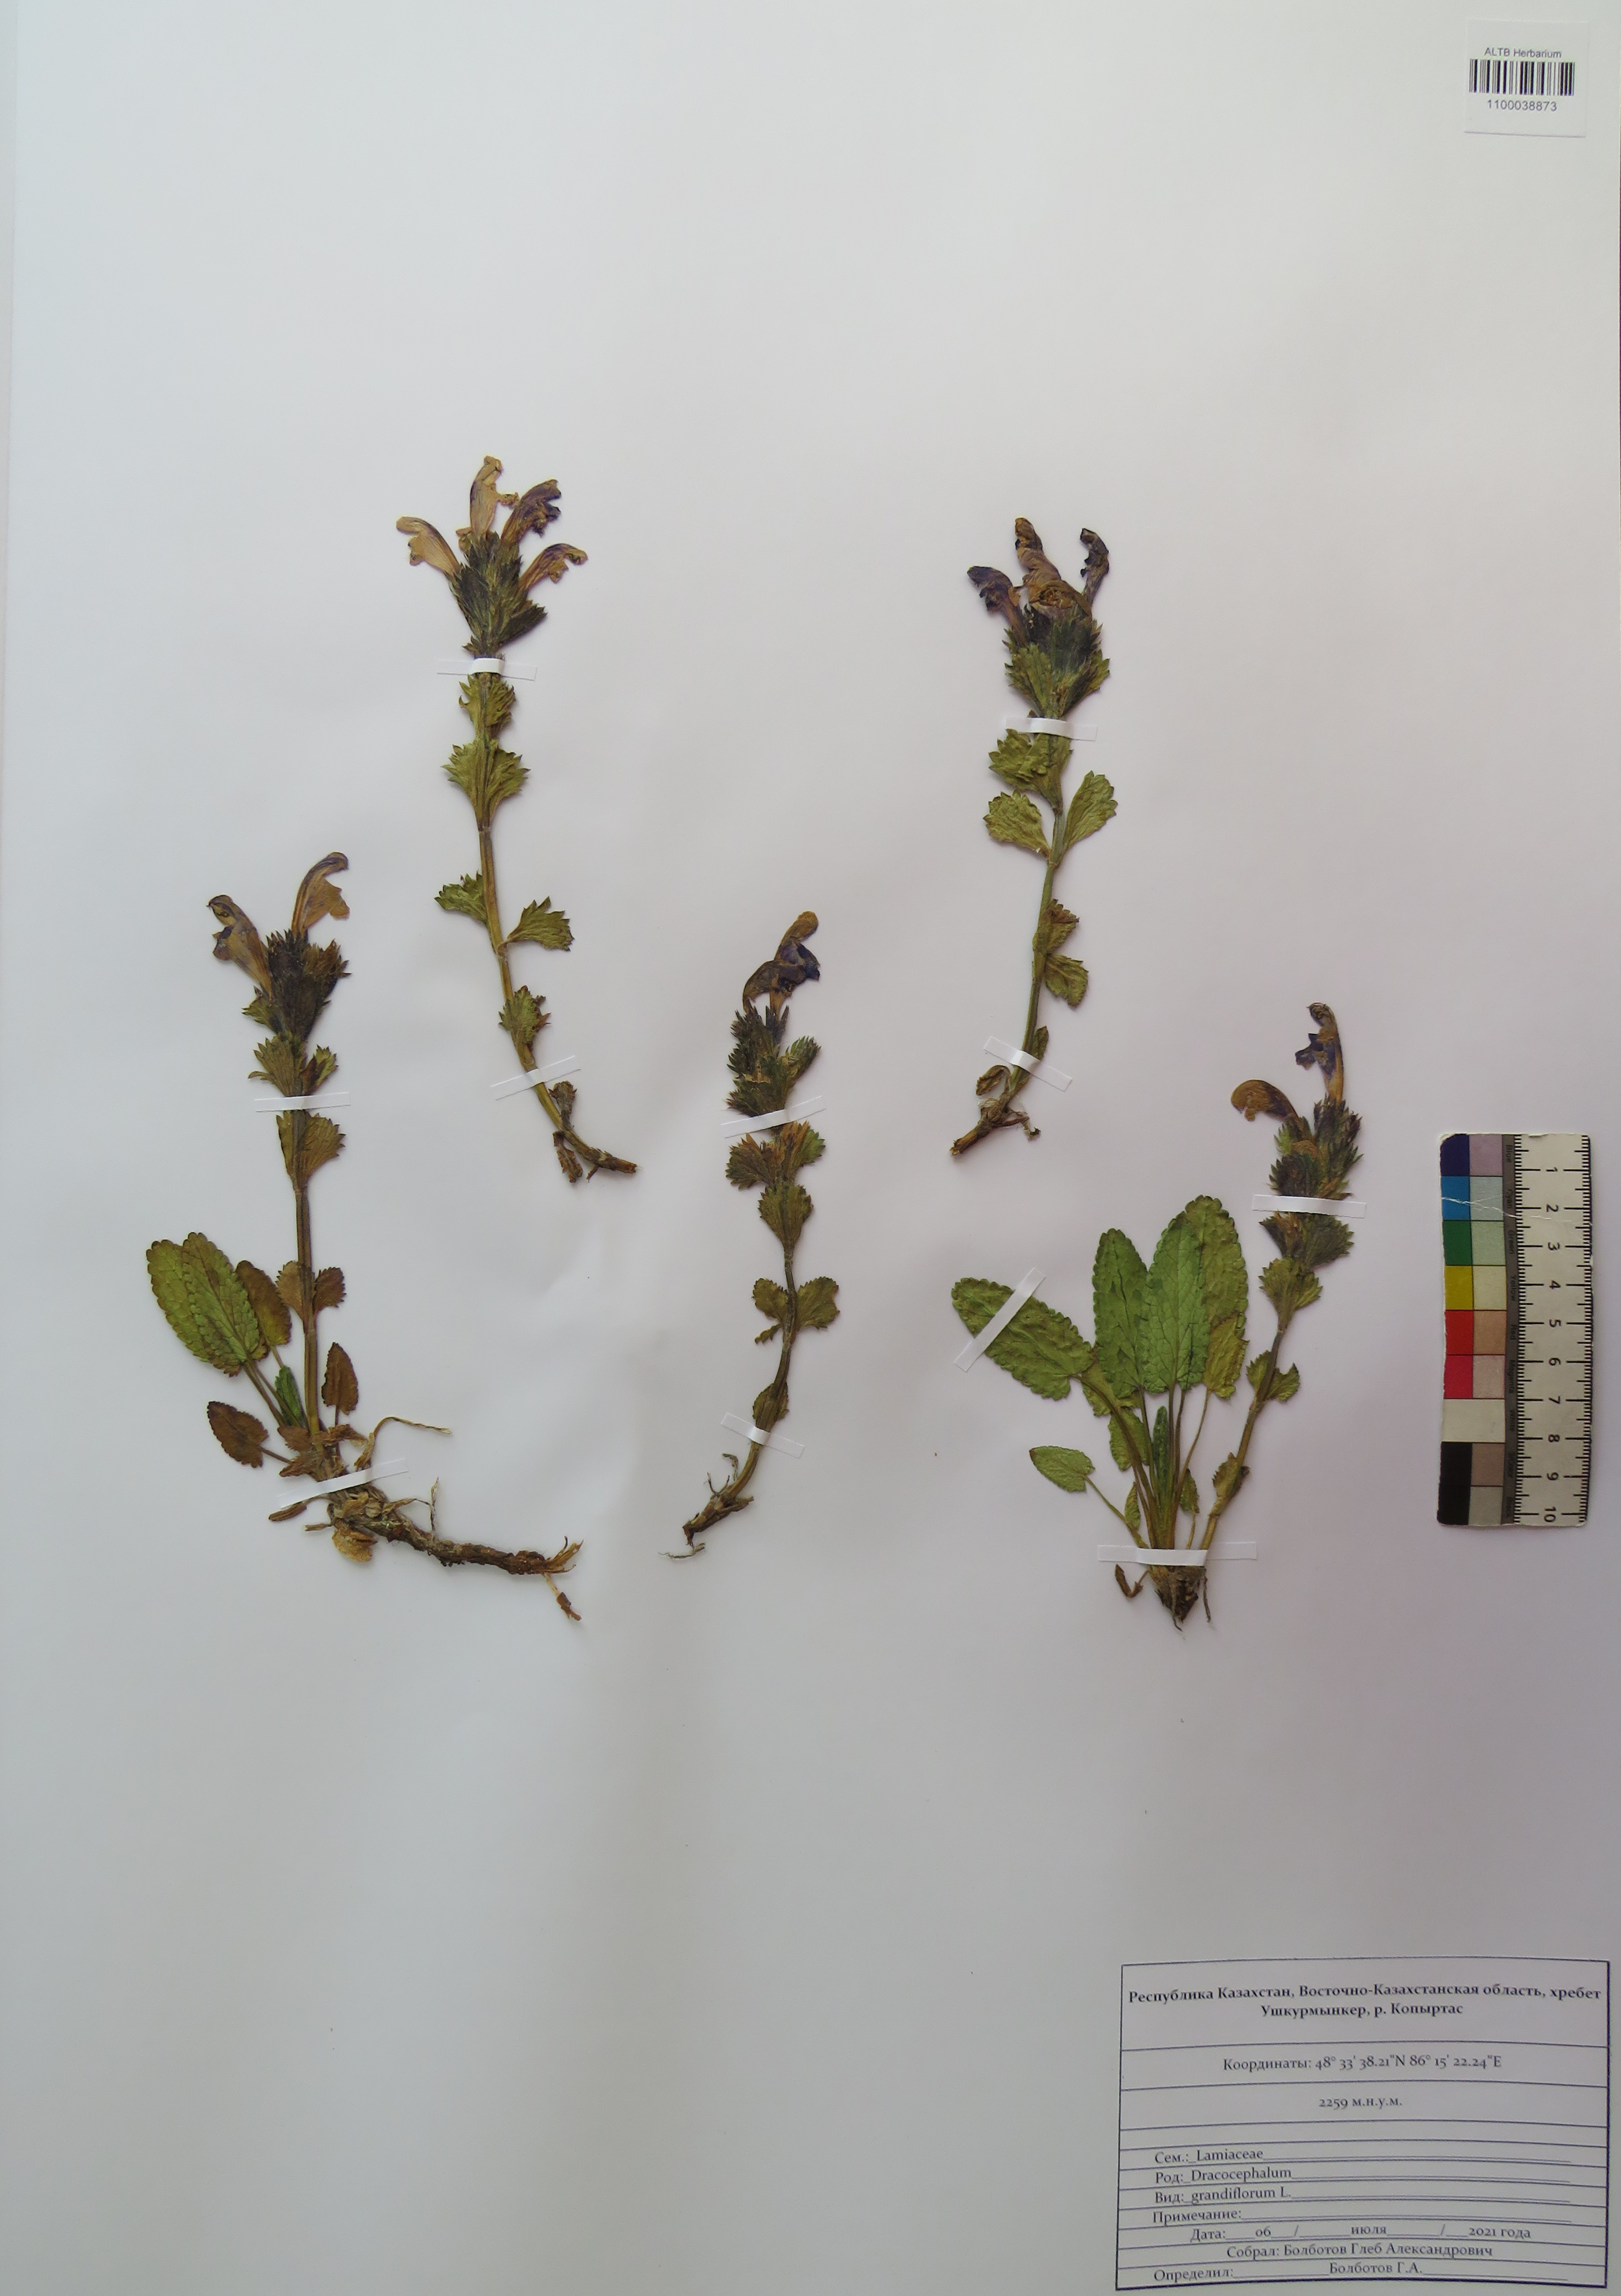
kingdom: Plantae
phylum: Tracheophyta
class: Magnoliopsida
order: Lamiales
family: Lamiaceae
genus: Dracocephalum
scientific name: Dracocephalum grandiflorum
